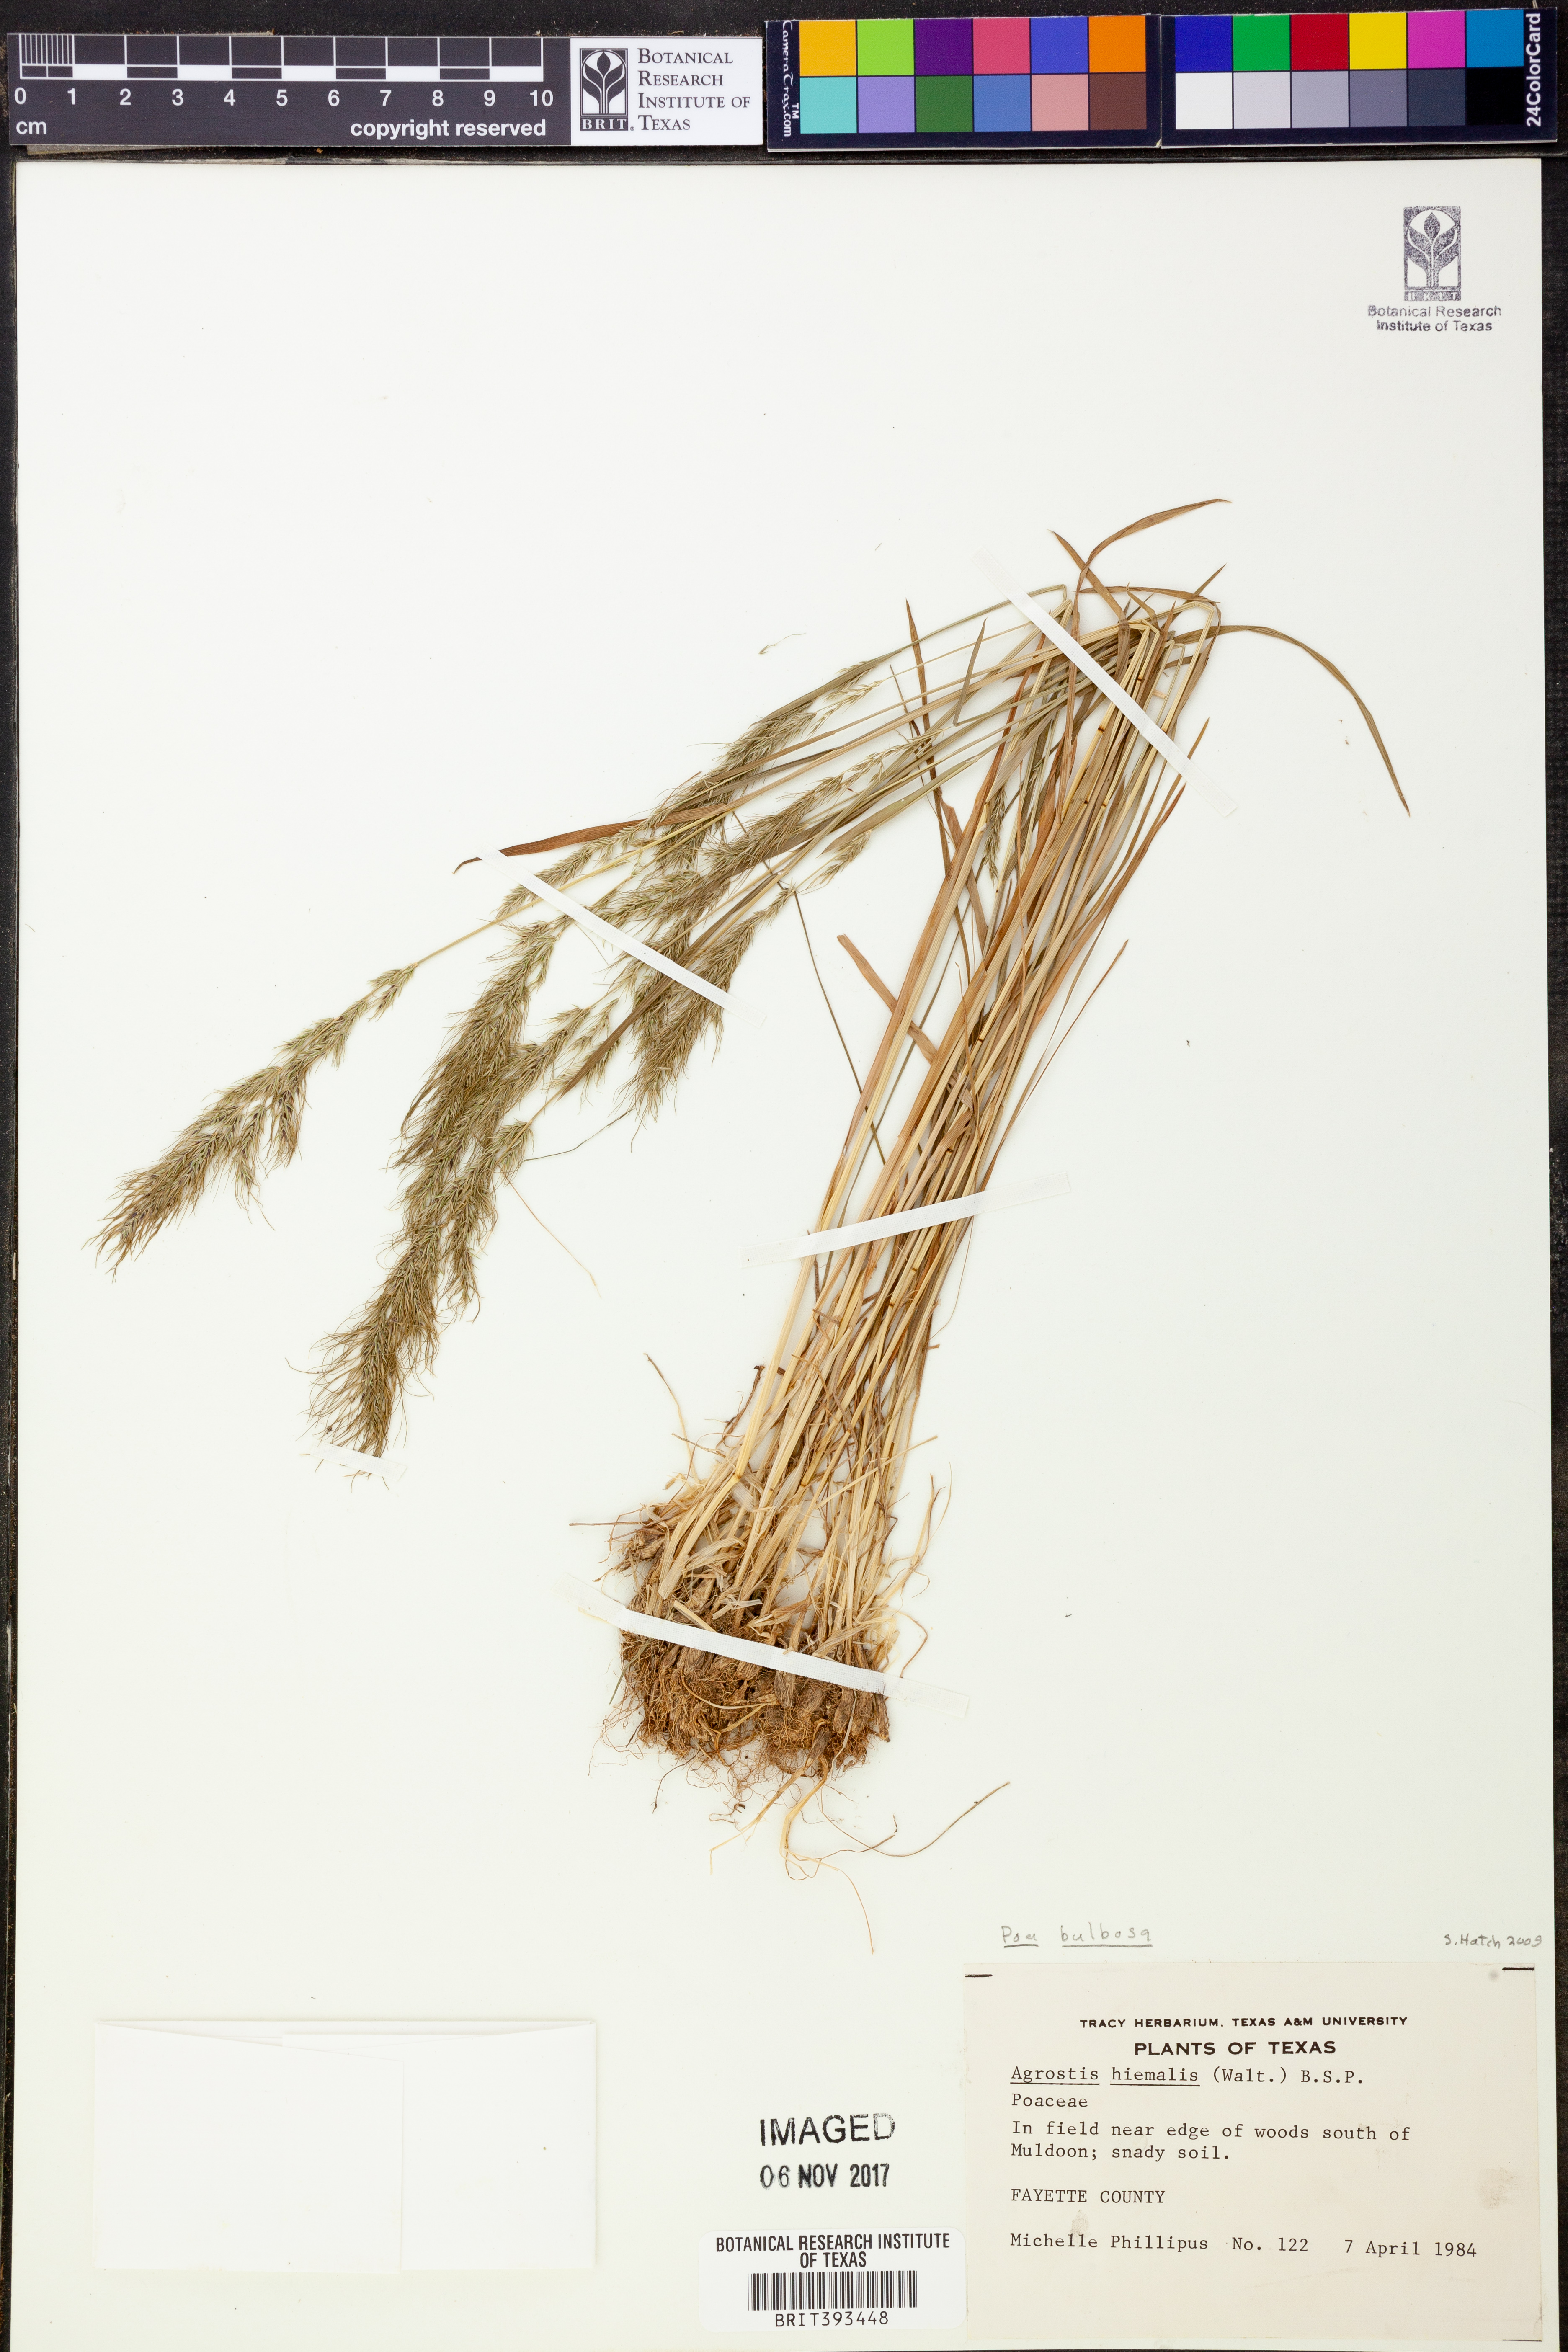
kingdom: Plantae
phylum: Tracheophyta
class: Liliopsida
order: Poales
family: Poaceae
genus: Poa
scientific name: Poa bulbosa
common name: Bulbous bluegrass
